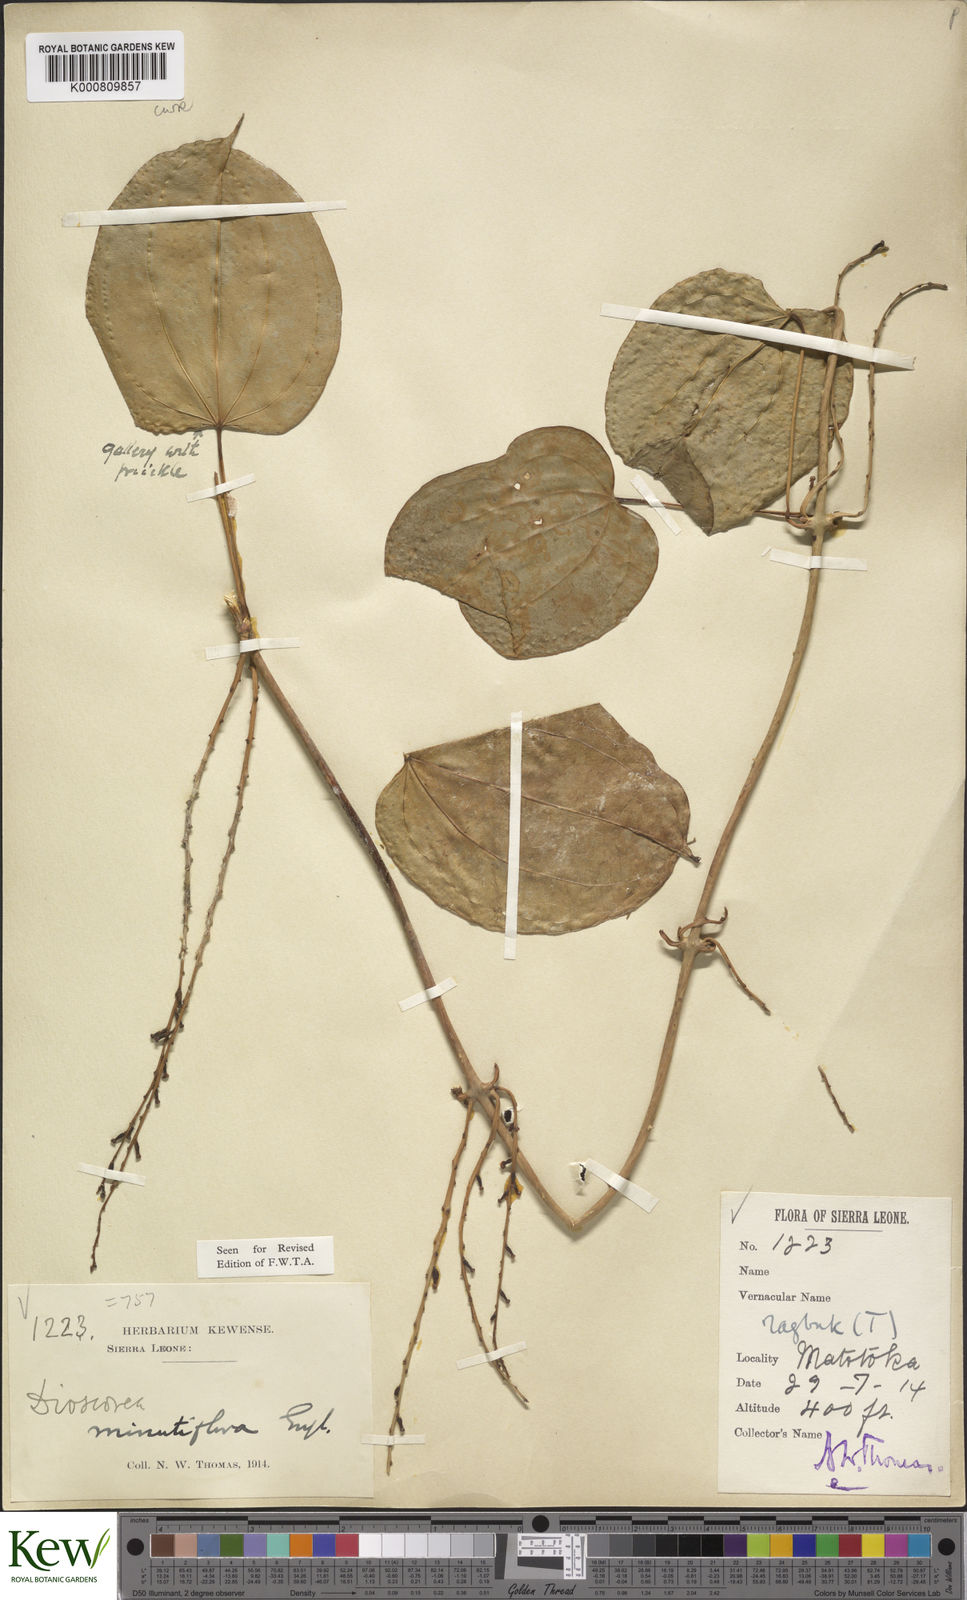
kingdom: Plantae
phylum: Tracheophyta
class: Liliopsida
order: Dioscoreales
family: Dioscoreaceae
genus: Dioscorea
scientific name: Dioscorea minutiflora
